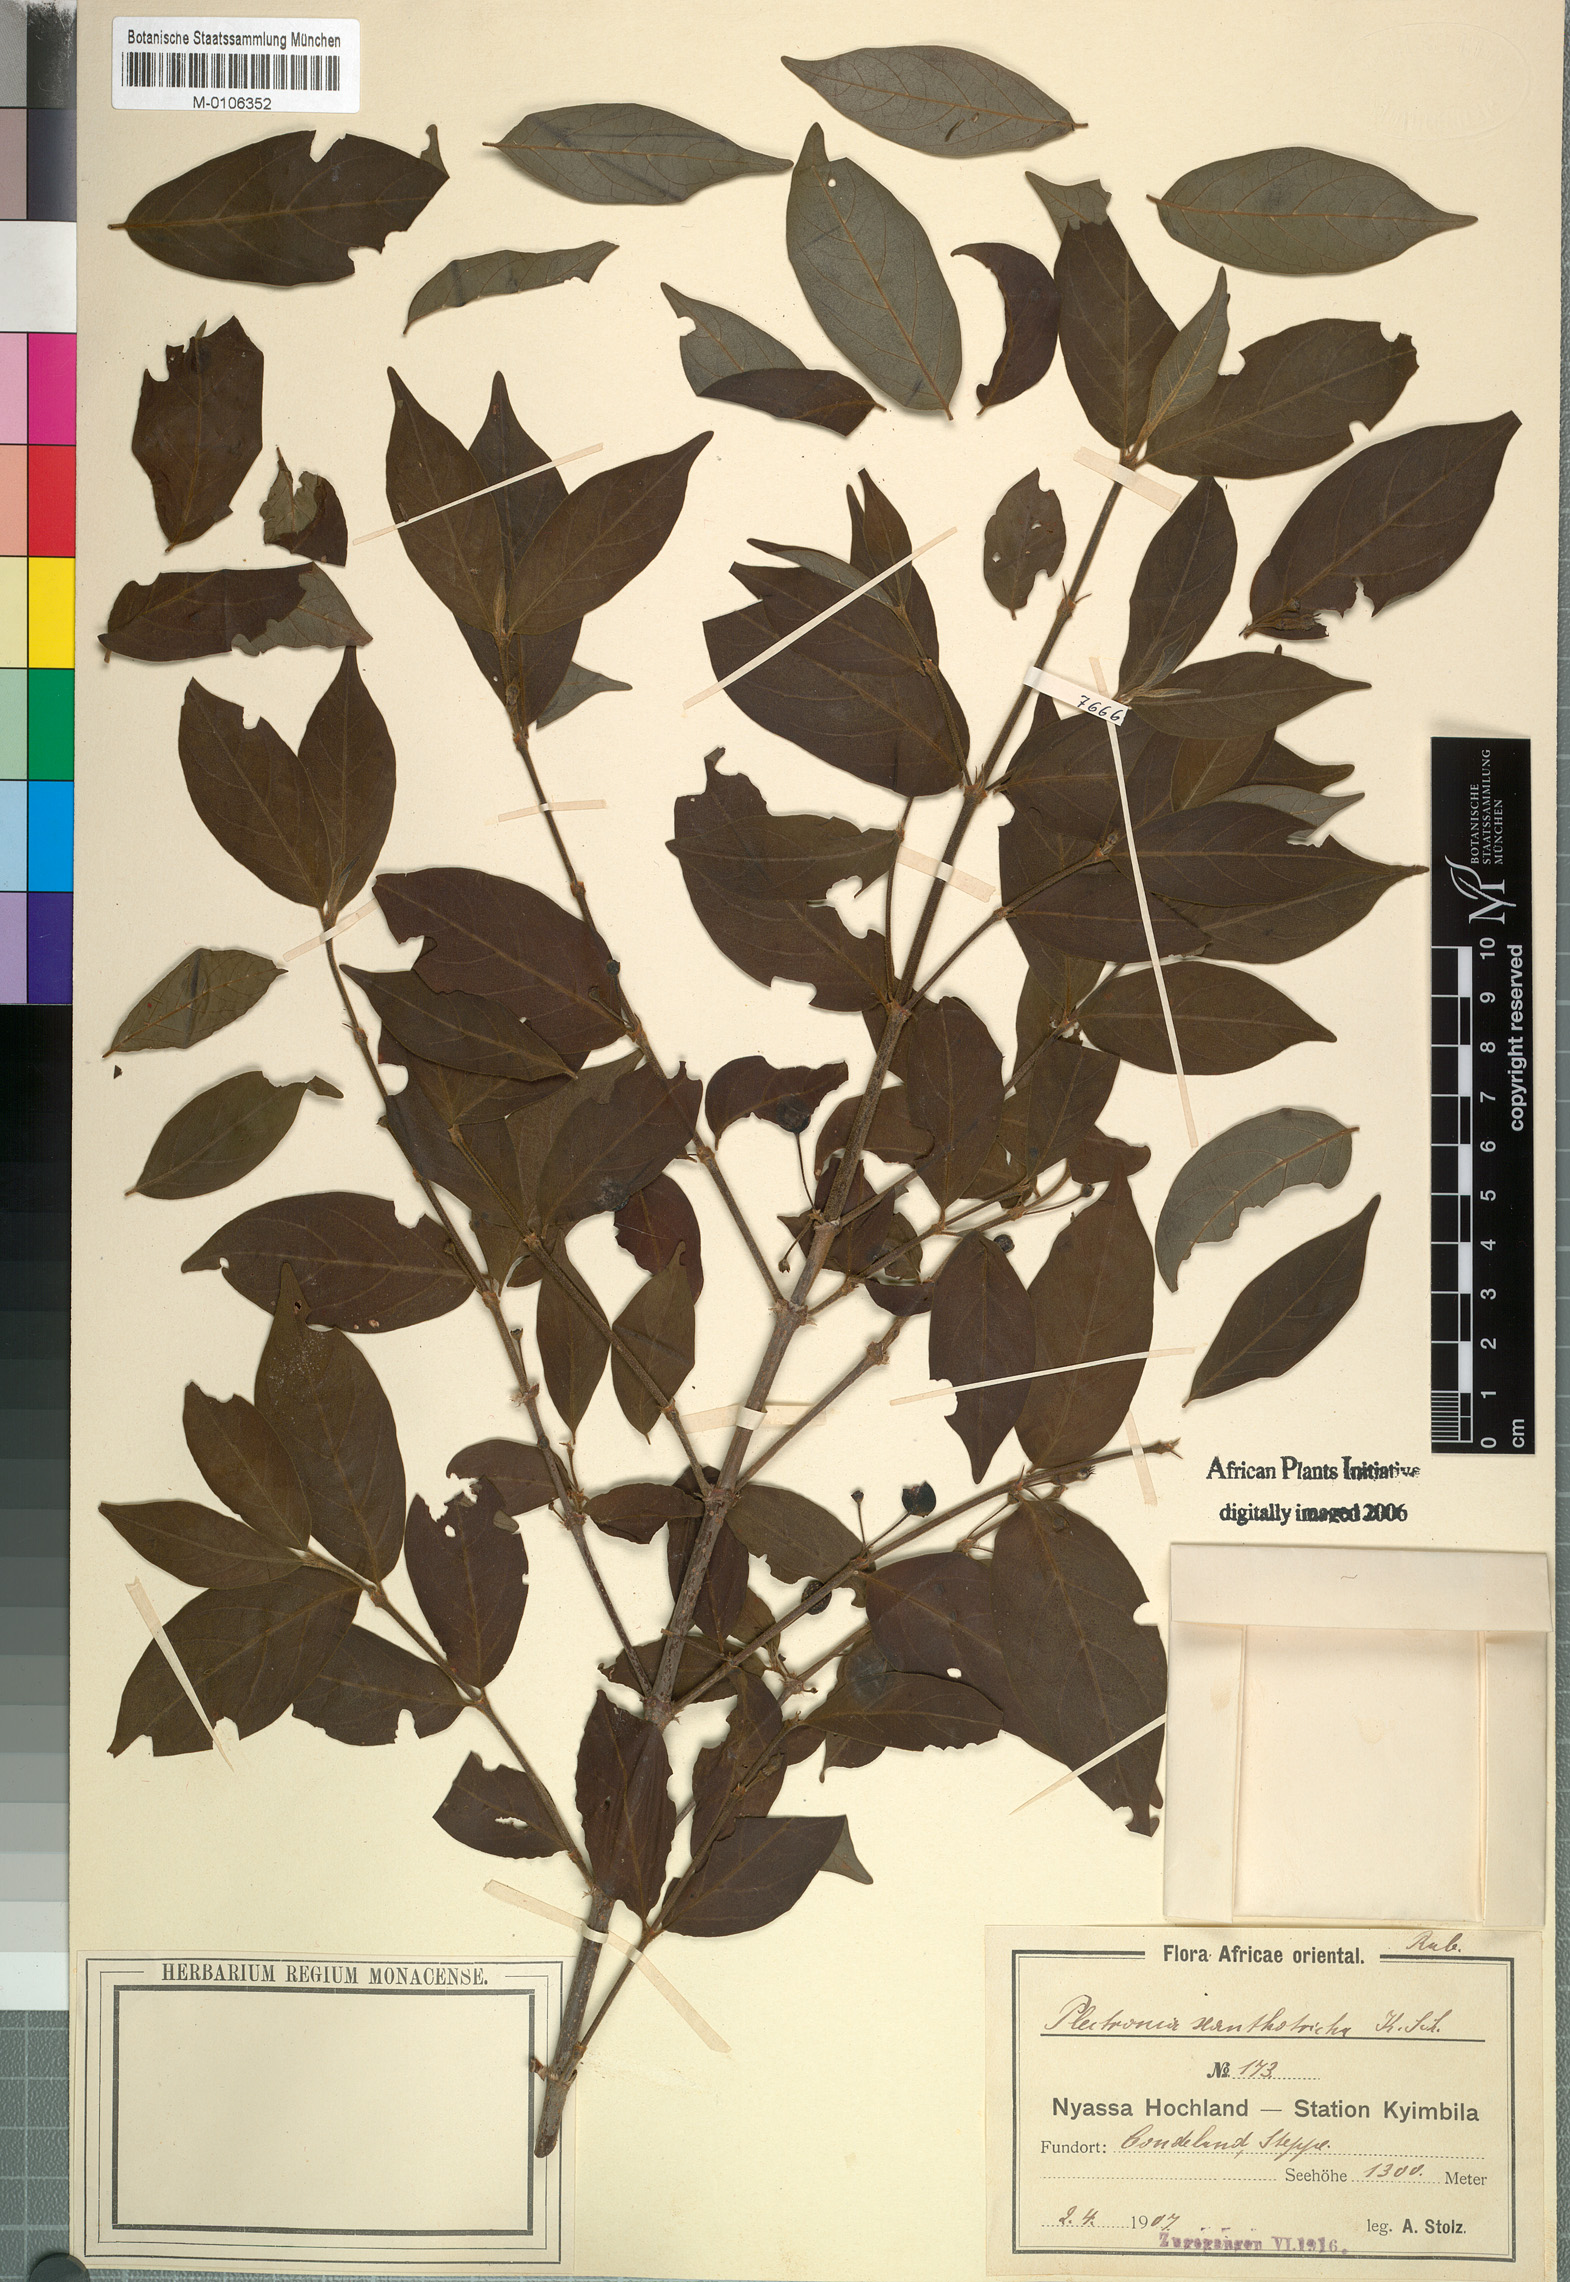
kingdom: Plantae
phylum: Tracheophyta
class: Magnoliopsida
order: Gentianales
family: Rubiaceae
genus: Rytigynia
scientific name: Rytigynia flavida
